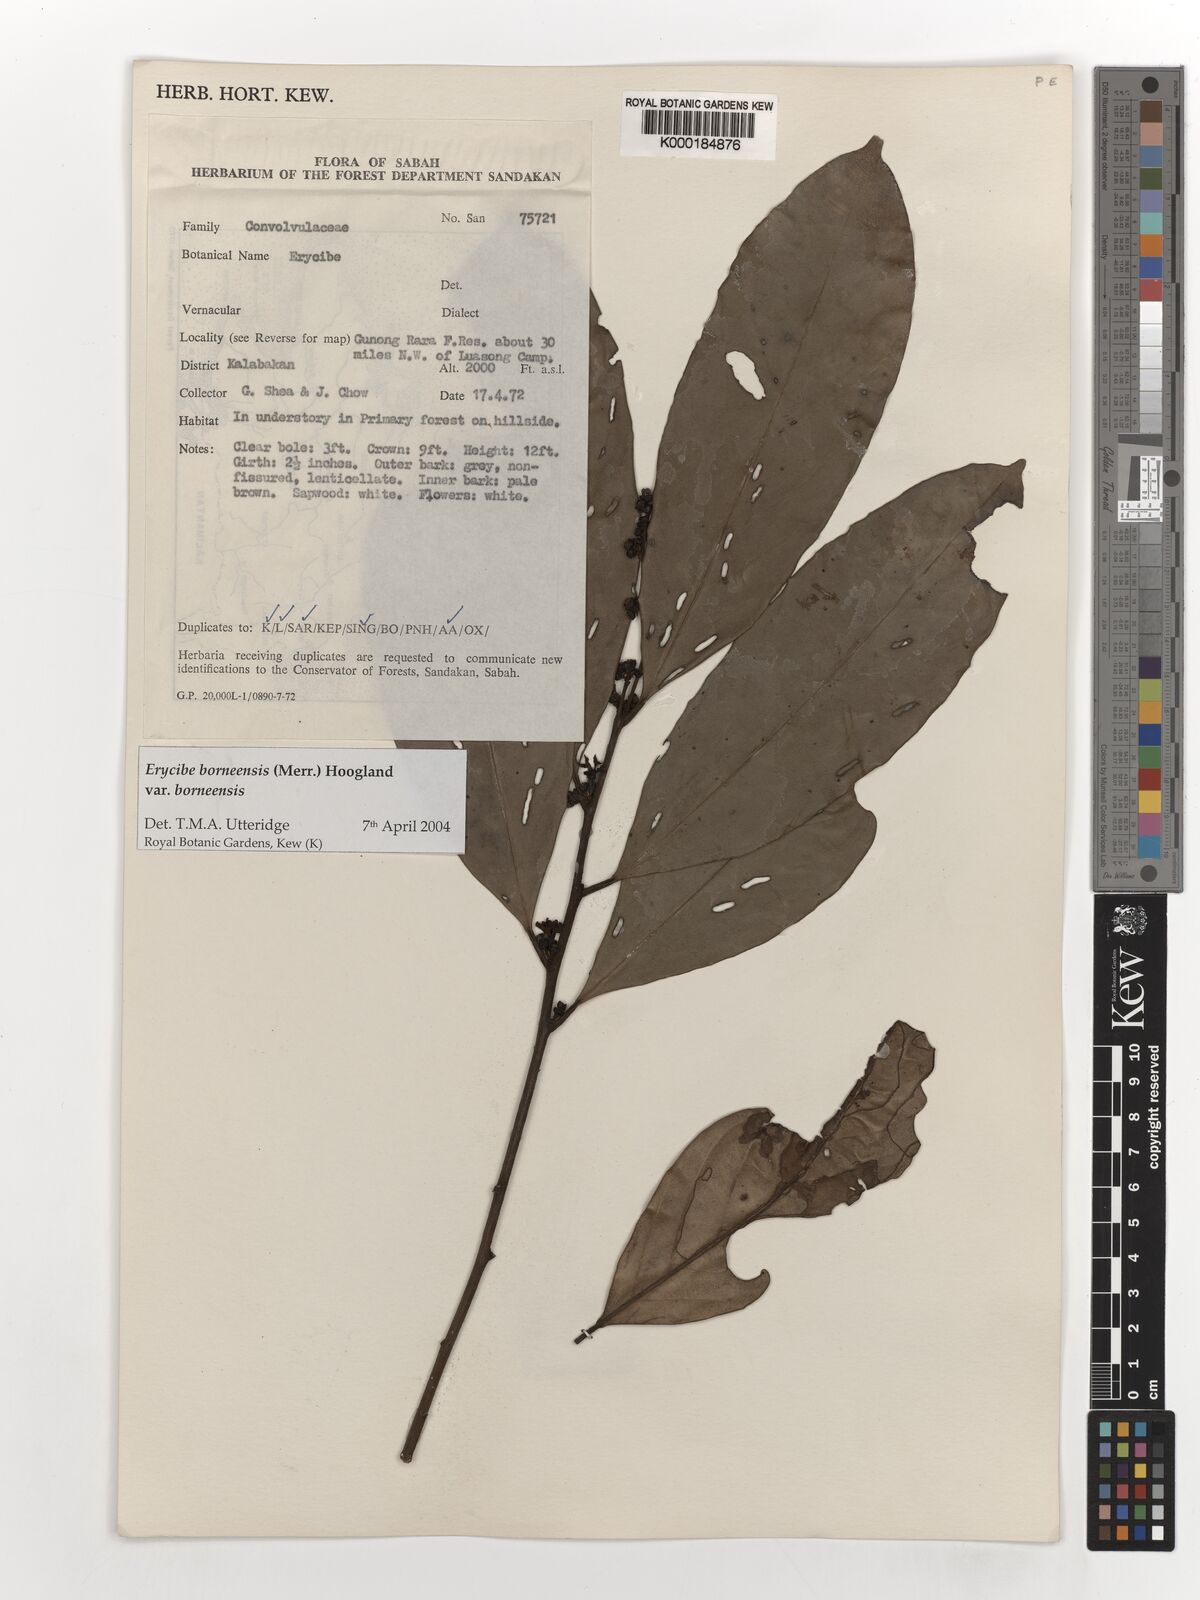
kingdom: Plantae
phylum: Tracheophyta
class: Magnoliopsida
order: Solanales
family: Convolvulaceae
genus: Erycibe
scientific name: Erycibe borneensis
